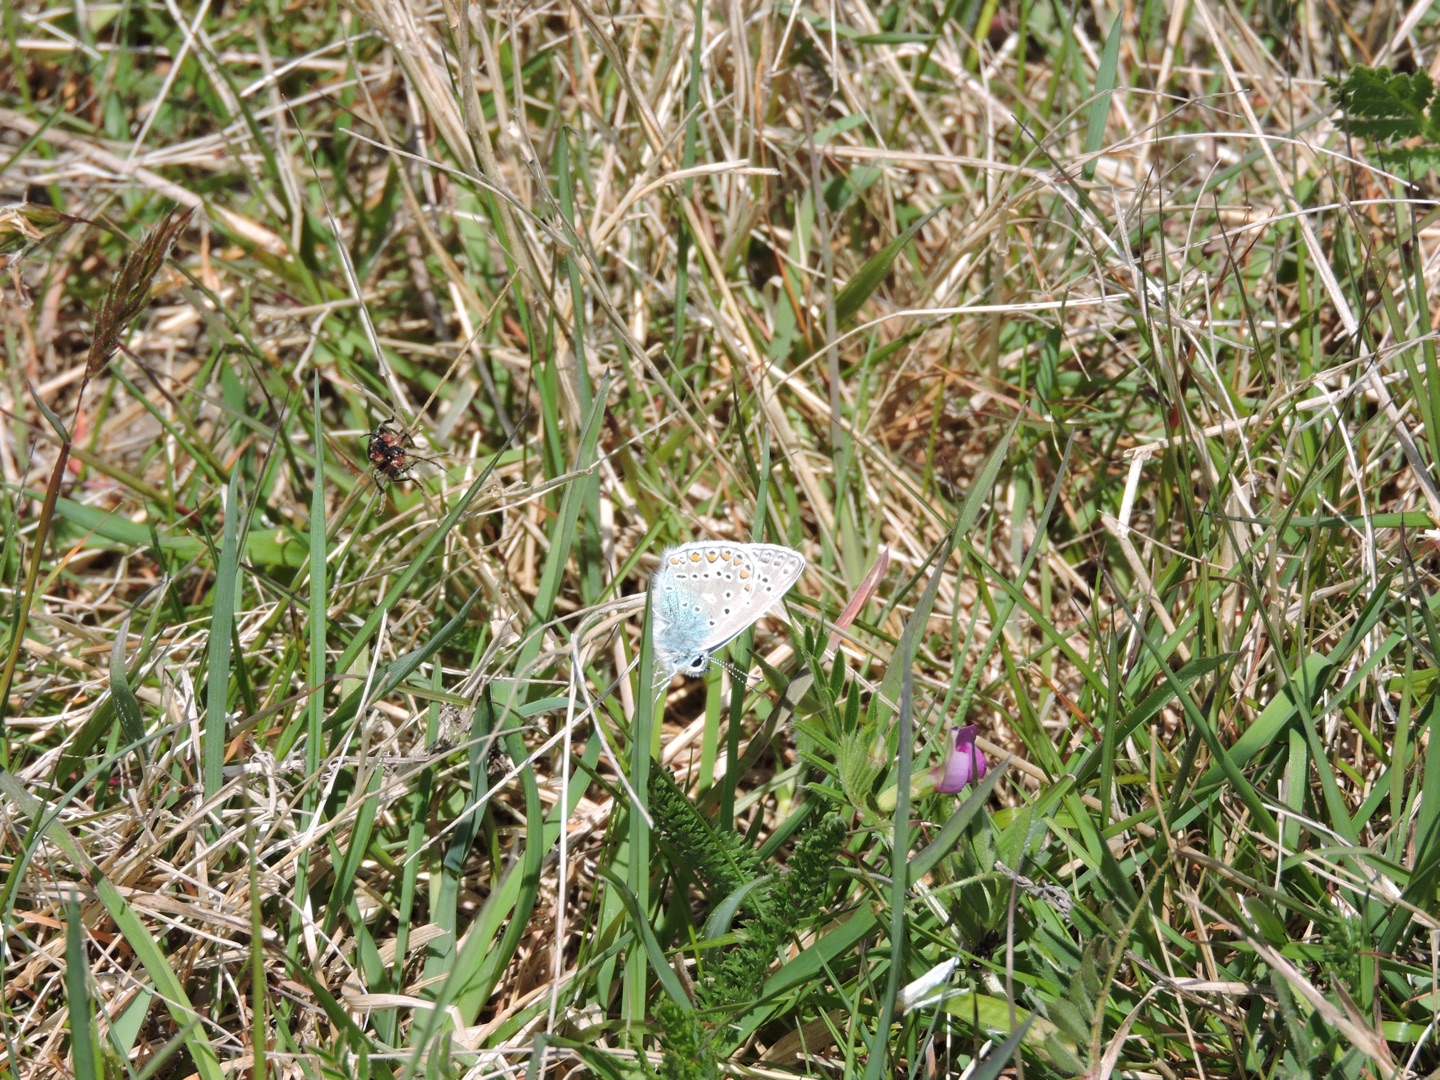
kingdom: Animalia
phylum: Arthropoda
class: Insecta
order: Lepidoptera
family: Lycaenidae
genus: Polyommatus
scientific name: Polyommatus icarus
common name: Almindelig blåfugl
